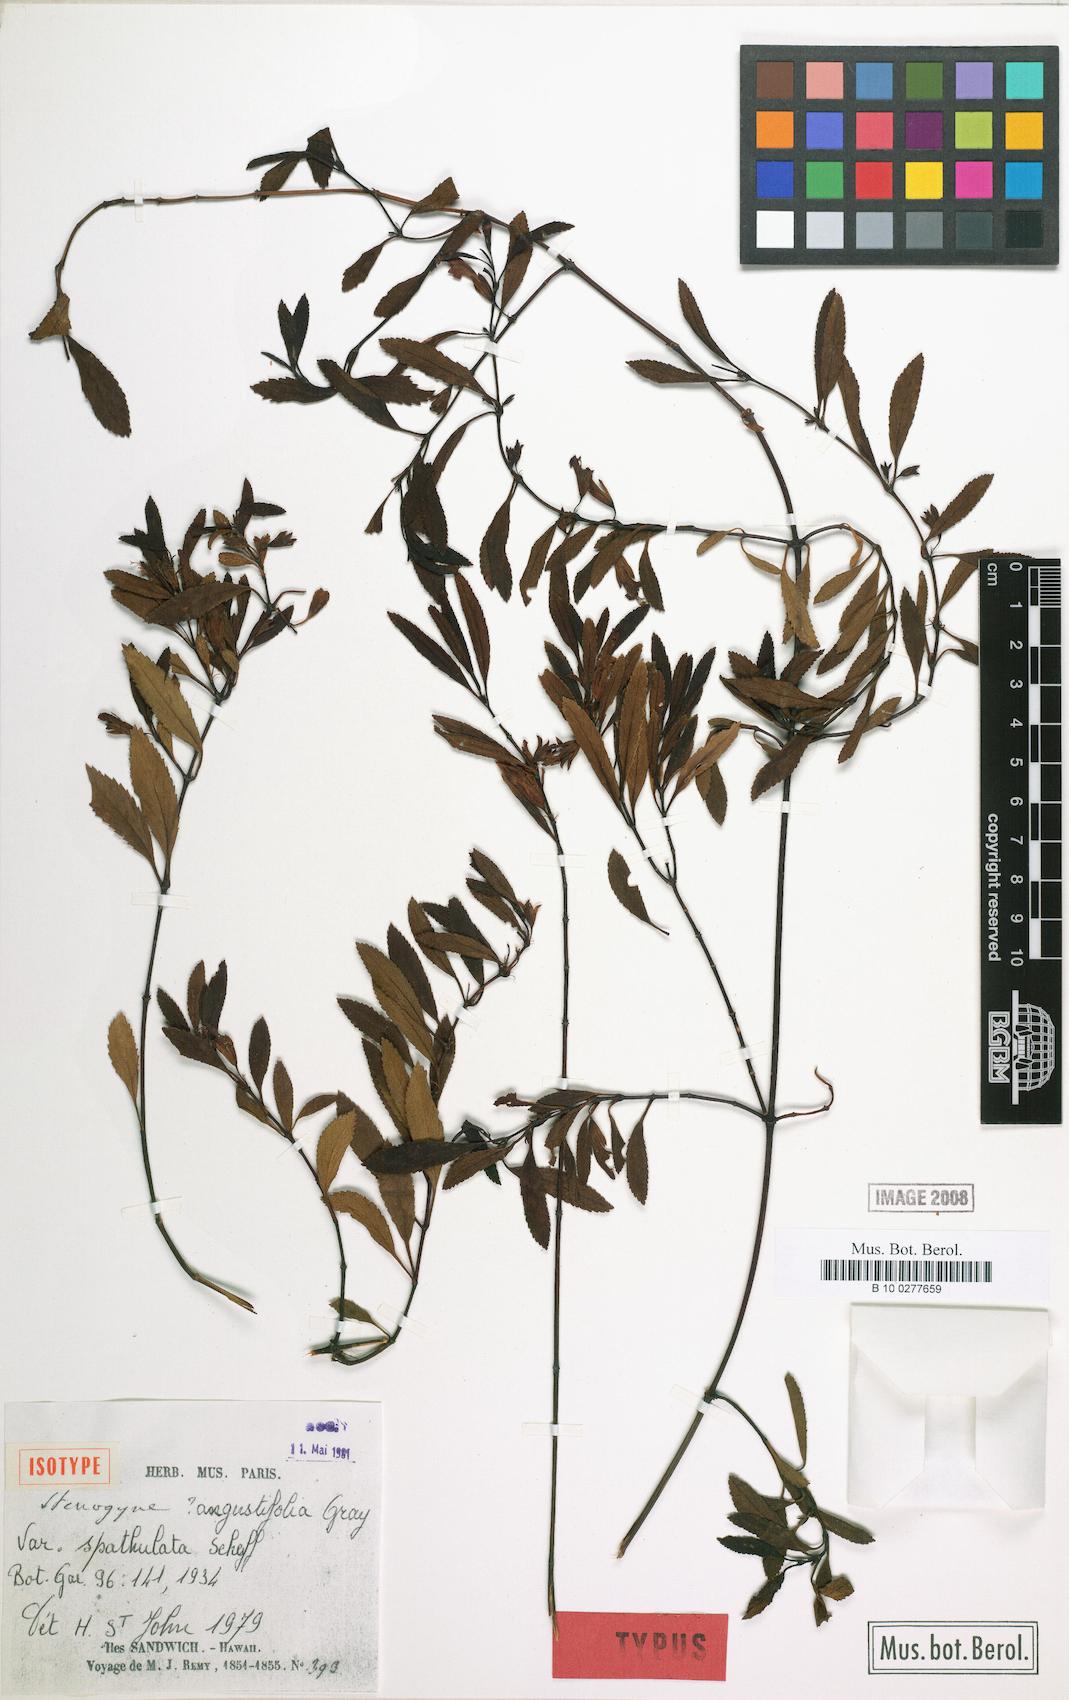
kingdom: Plantae
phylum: Tracheophyta
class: Magnoliopsida
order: Lamiales
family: Lamiaceae
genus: Stenogyne
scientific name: Stenogyne angustifolia
